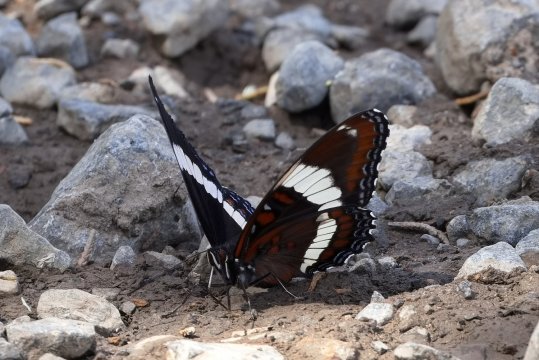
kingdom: Animalia
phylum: Arthropoda
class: Insecta
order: Lepidoptera
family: Nymphalidae
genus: Limenitis
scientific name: Limenitis arthemis
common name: Red-spotted Admiral
